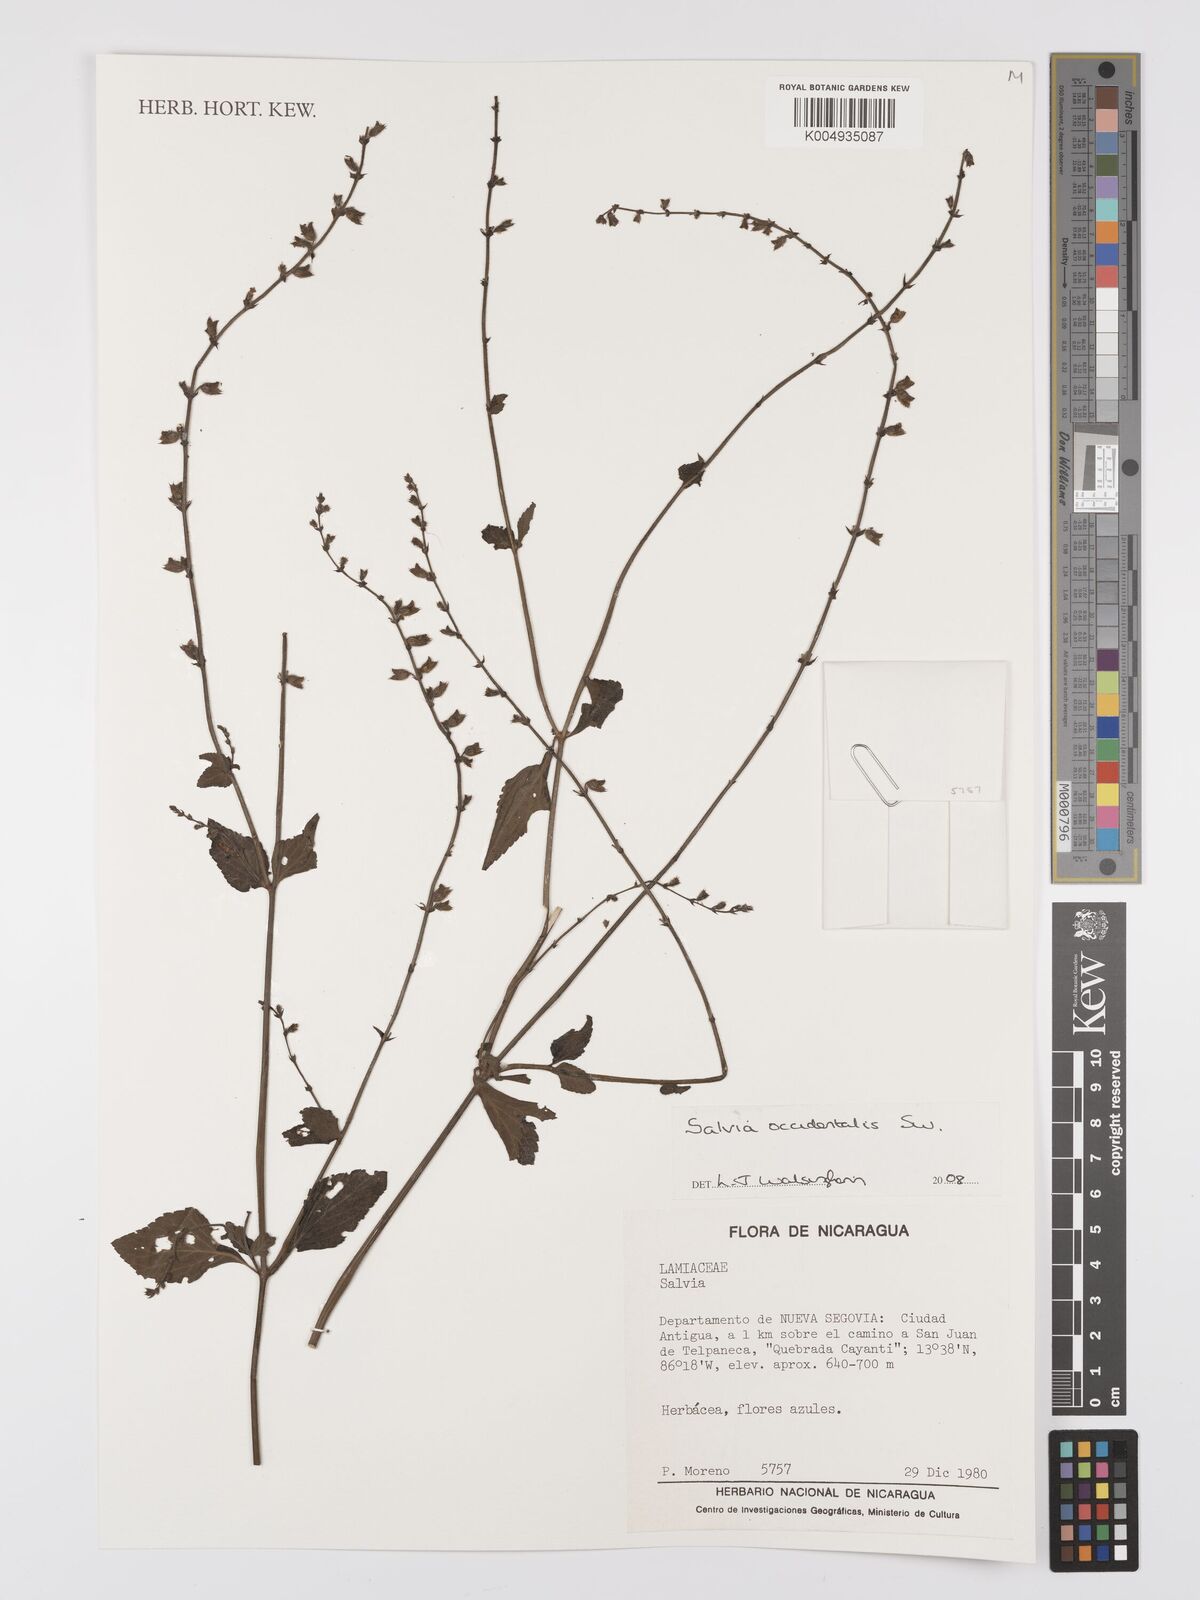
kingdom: Plantae
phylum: Tracheophyta
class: Magnoliopsida
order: Lamiales
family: Lamiaceae
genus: Salvia
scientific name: Salvia occidentalis
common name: West indian sage
